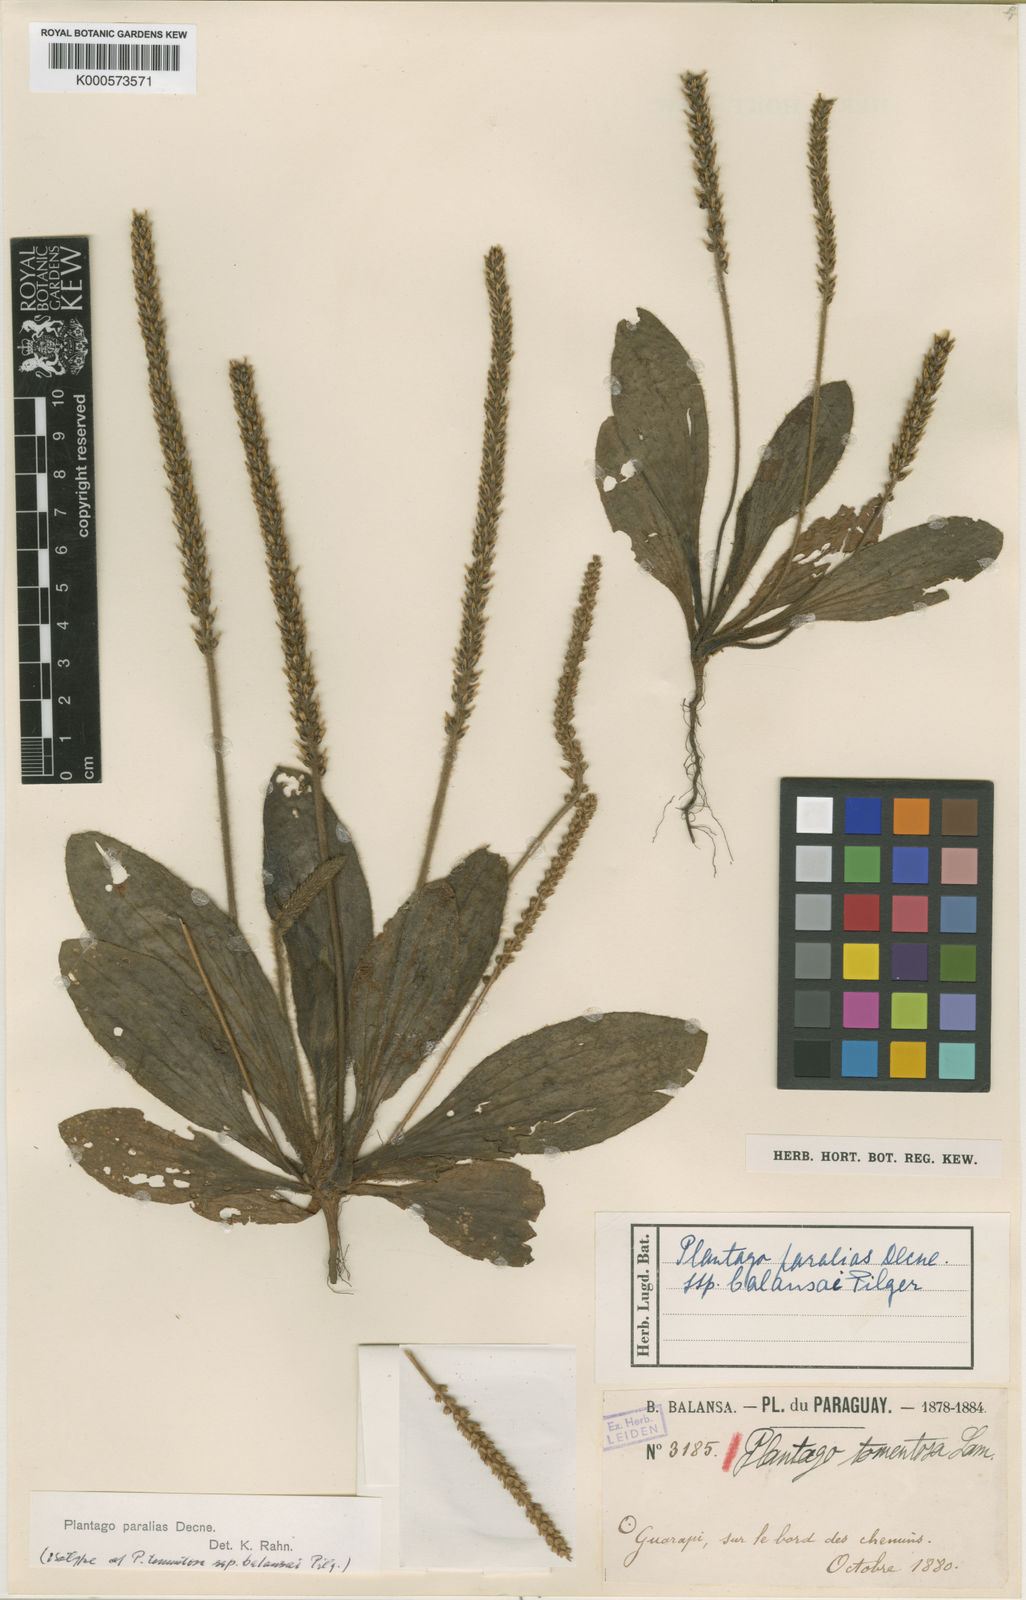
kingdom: Plantae
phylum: Tracheophyta
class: Magnoliopsida
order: Lamiales
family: Plantaginaceae
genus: Plantago
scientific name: Plantago tomentosa
